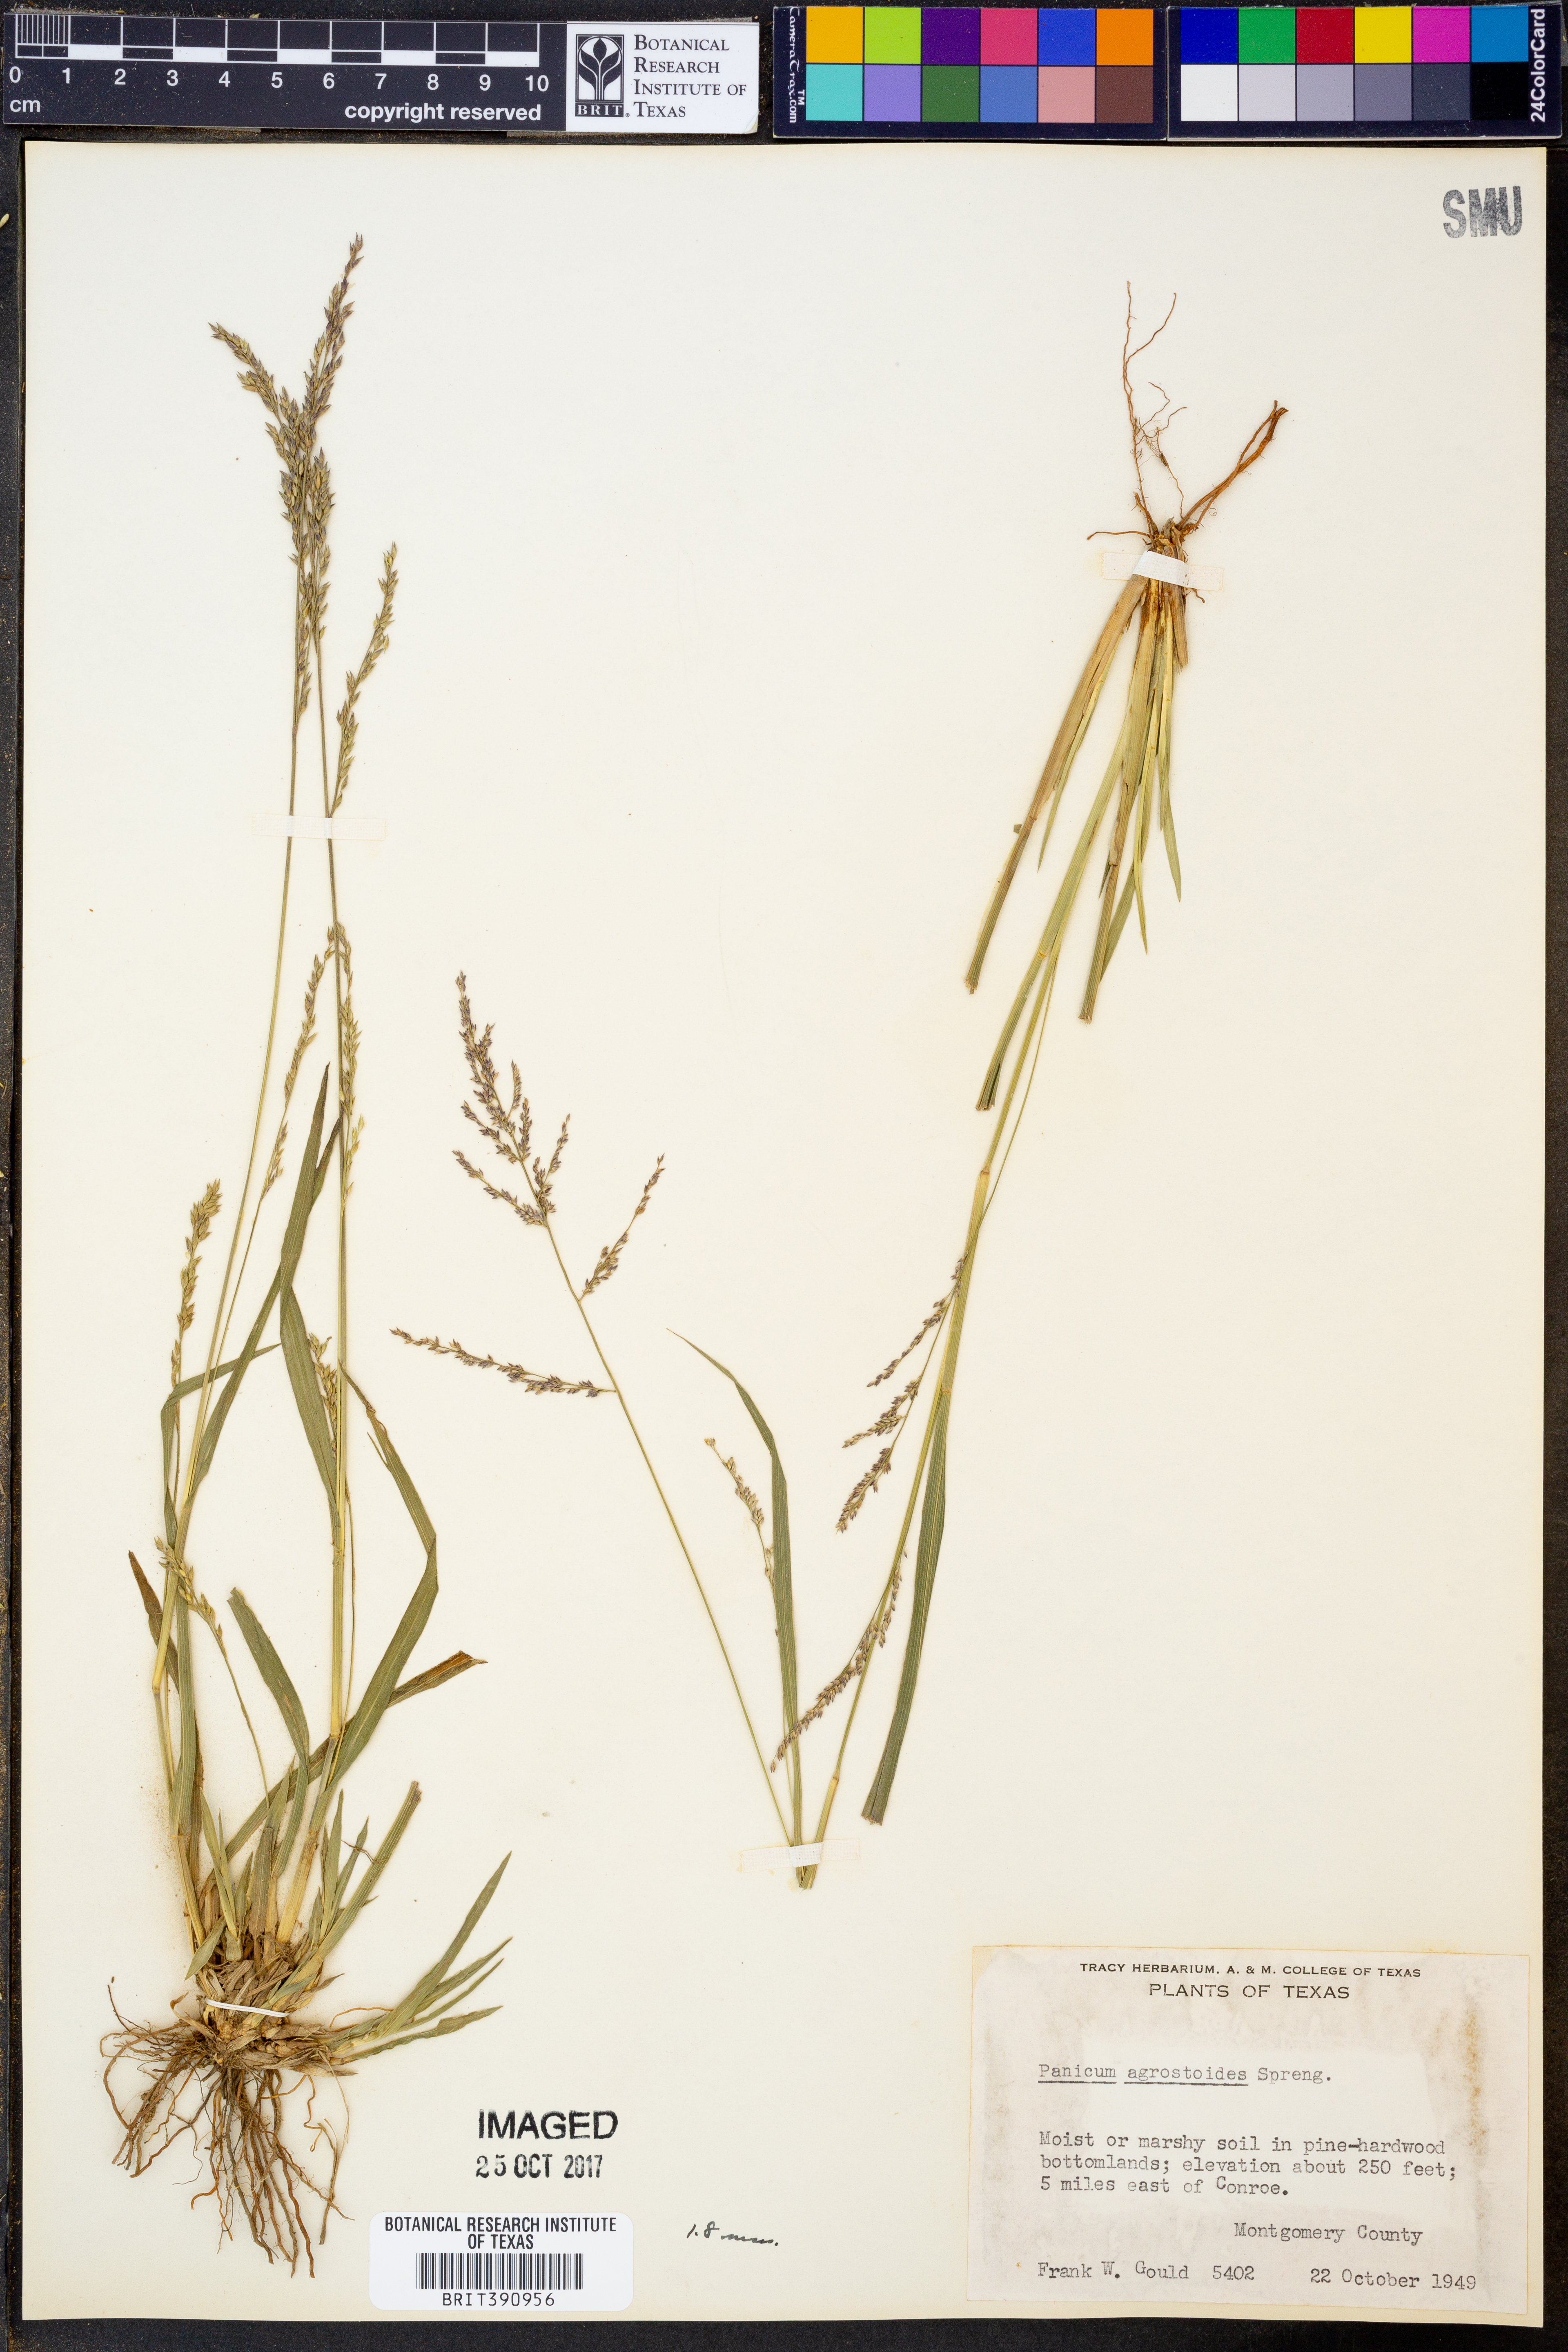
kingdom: Plantae
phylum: Tracheophyta
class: Liliopsida
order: Poales
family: Poaceae
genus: Steinchisma
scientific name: Steinchisma laxum
